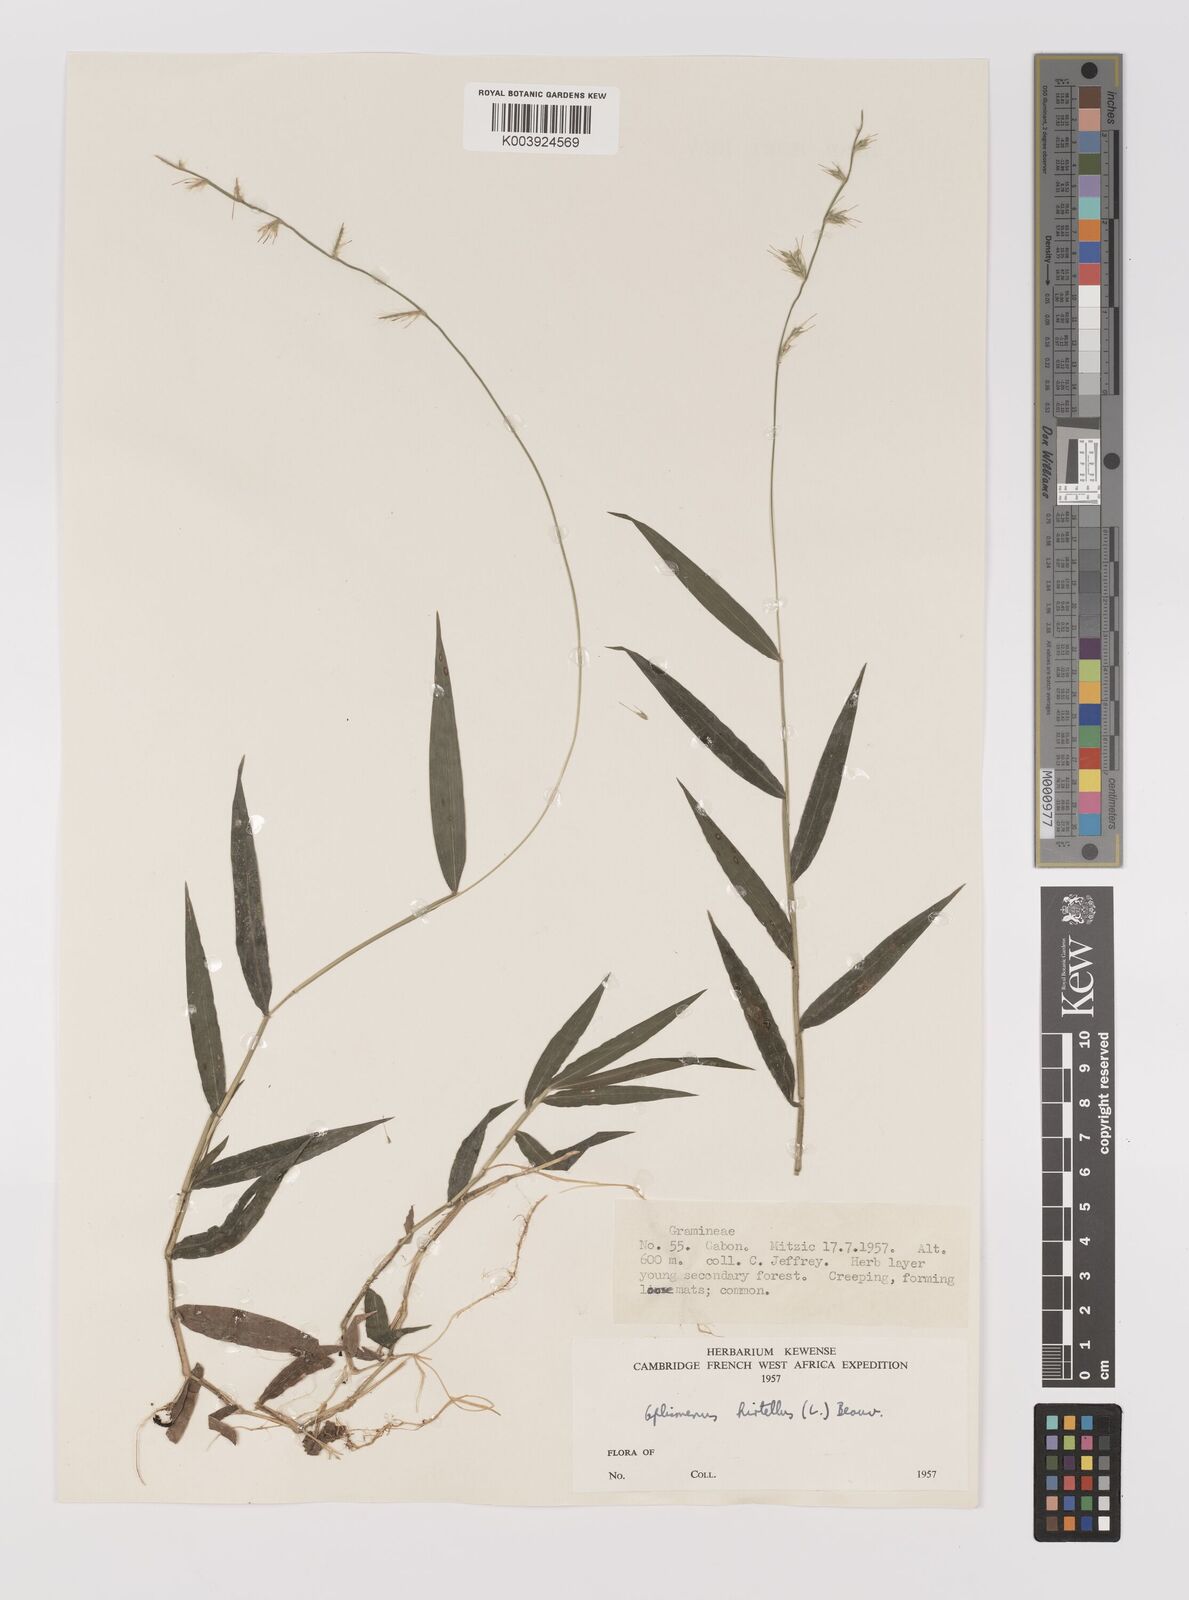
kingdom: Plantae
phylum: Tracheophyta
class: Liliopsida
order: Poales
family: Poaceae
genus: Oplismenus
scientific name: Oplismenus hirtellus
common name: Basketgrass
